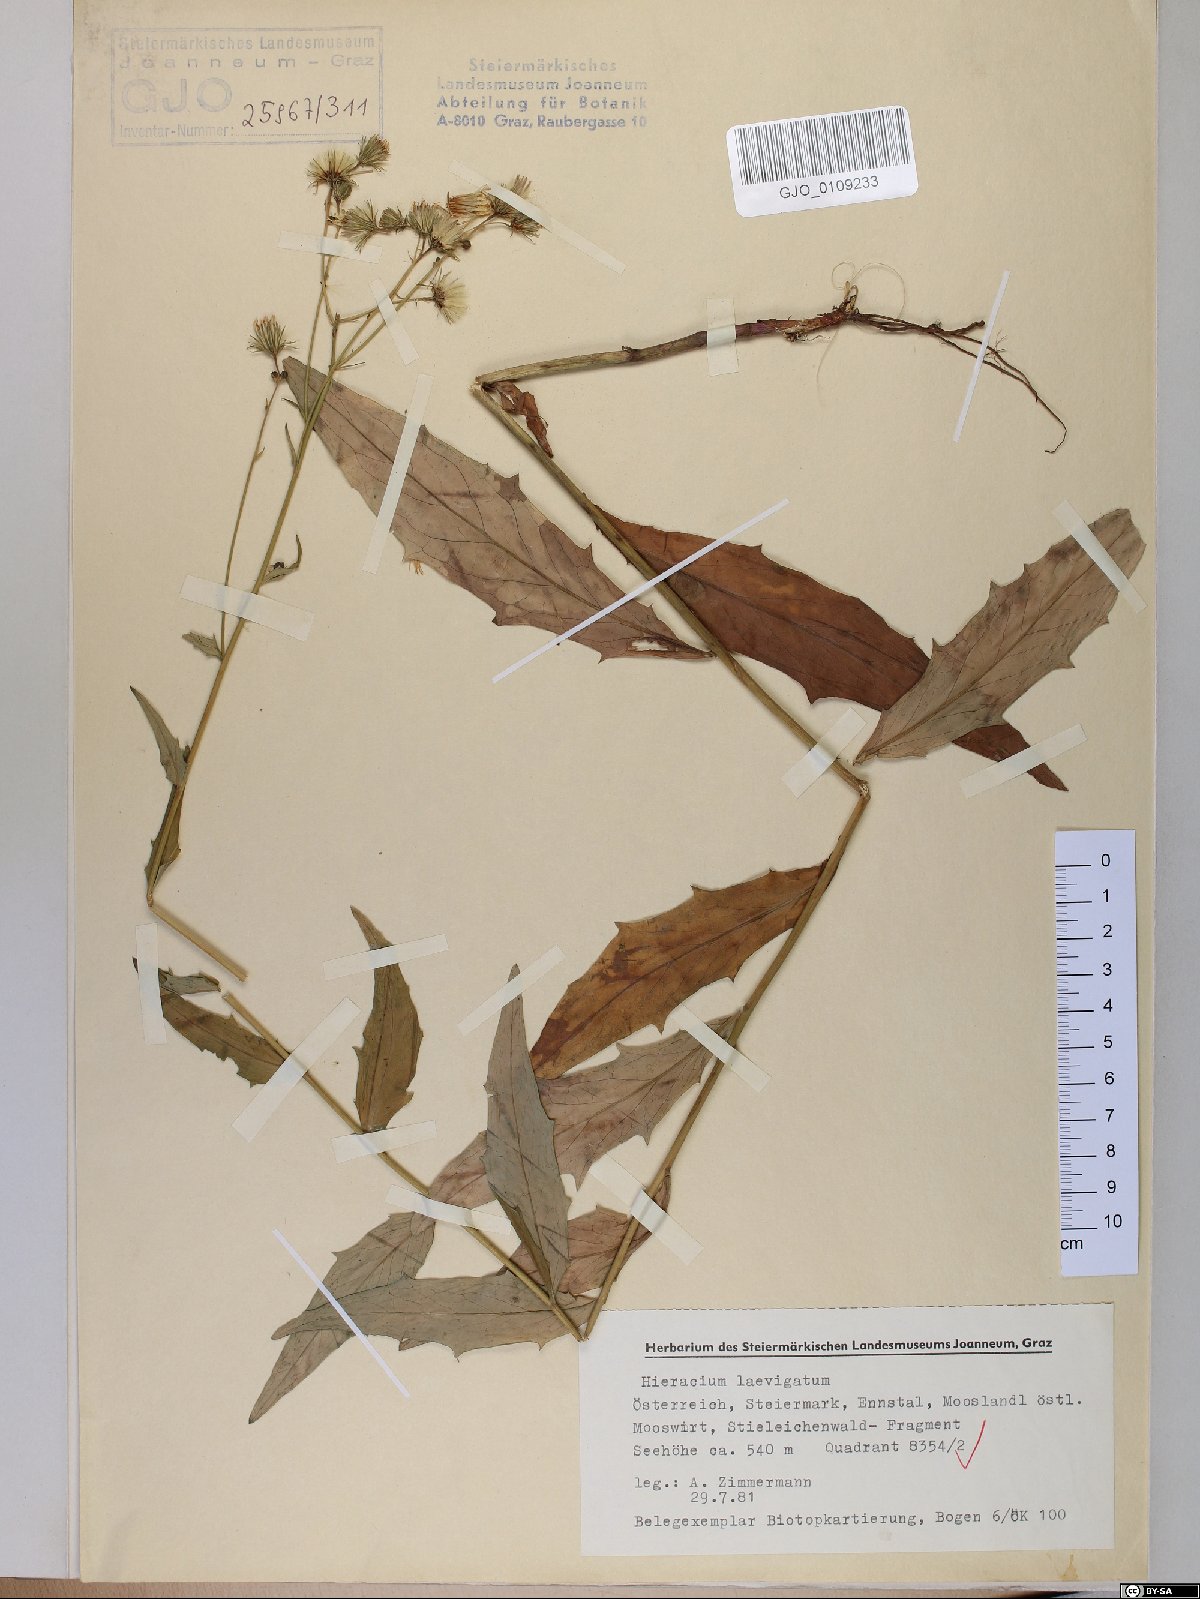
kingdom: Plantae
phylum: Tracheophyta
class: Magnoliopsida
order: Asterales
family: Asteraceae
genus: Hieracium
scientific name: Hieracium laevigatum
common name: Smooth hawkweed
